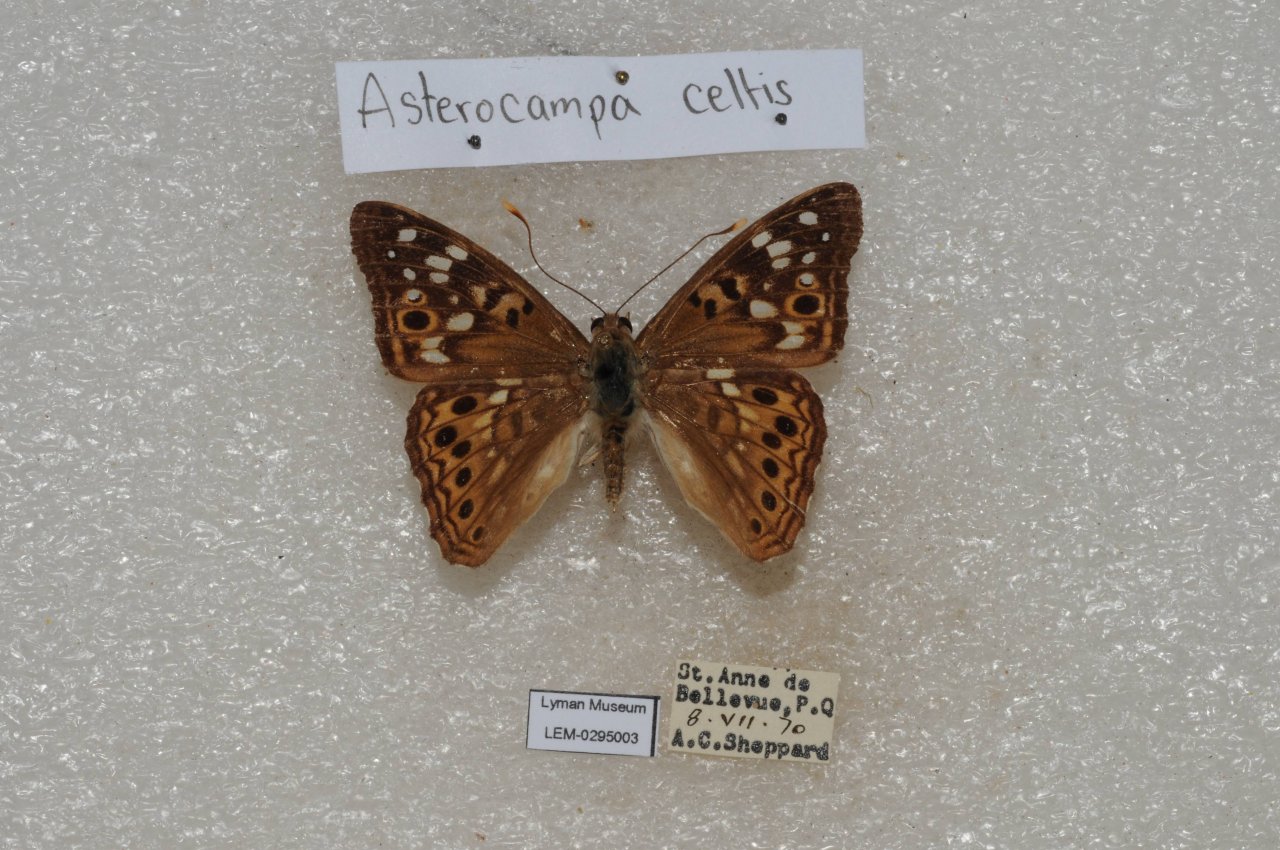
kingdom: Animalia
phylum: Arthropoda
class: Insecta
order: Lepidoptera
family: Nymphalidae
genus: Asterocampa
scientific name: Asterocampa celtis
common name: Hackberry Emperor
